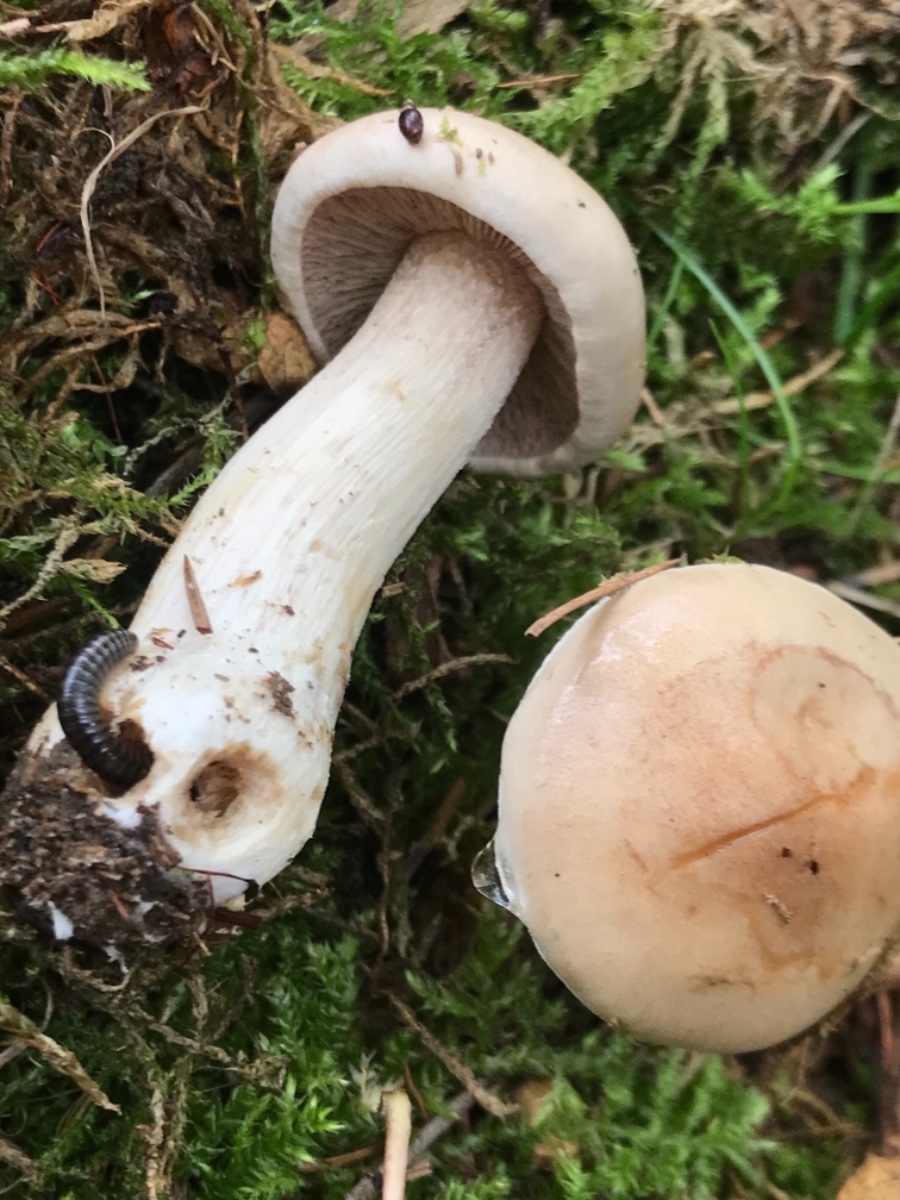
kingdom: Fungi
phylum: Basidiomycota
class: Agaricomycetes
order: Agaricales
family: Hymenogastraceae
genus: Hebeloma
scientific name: Hebeloma
